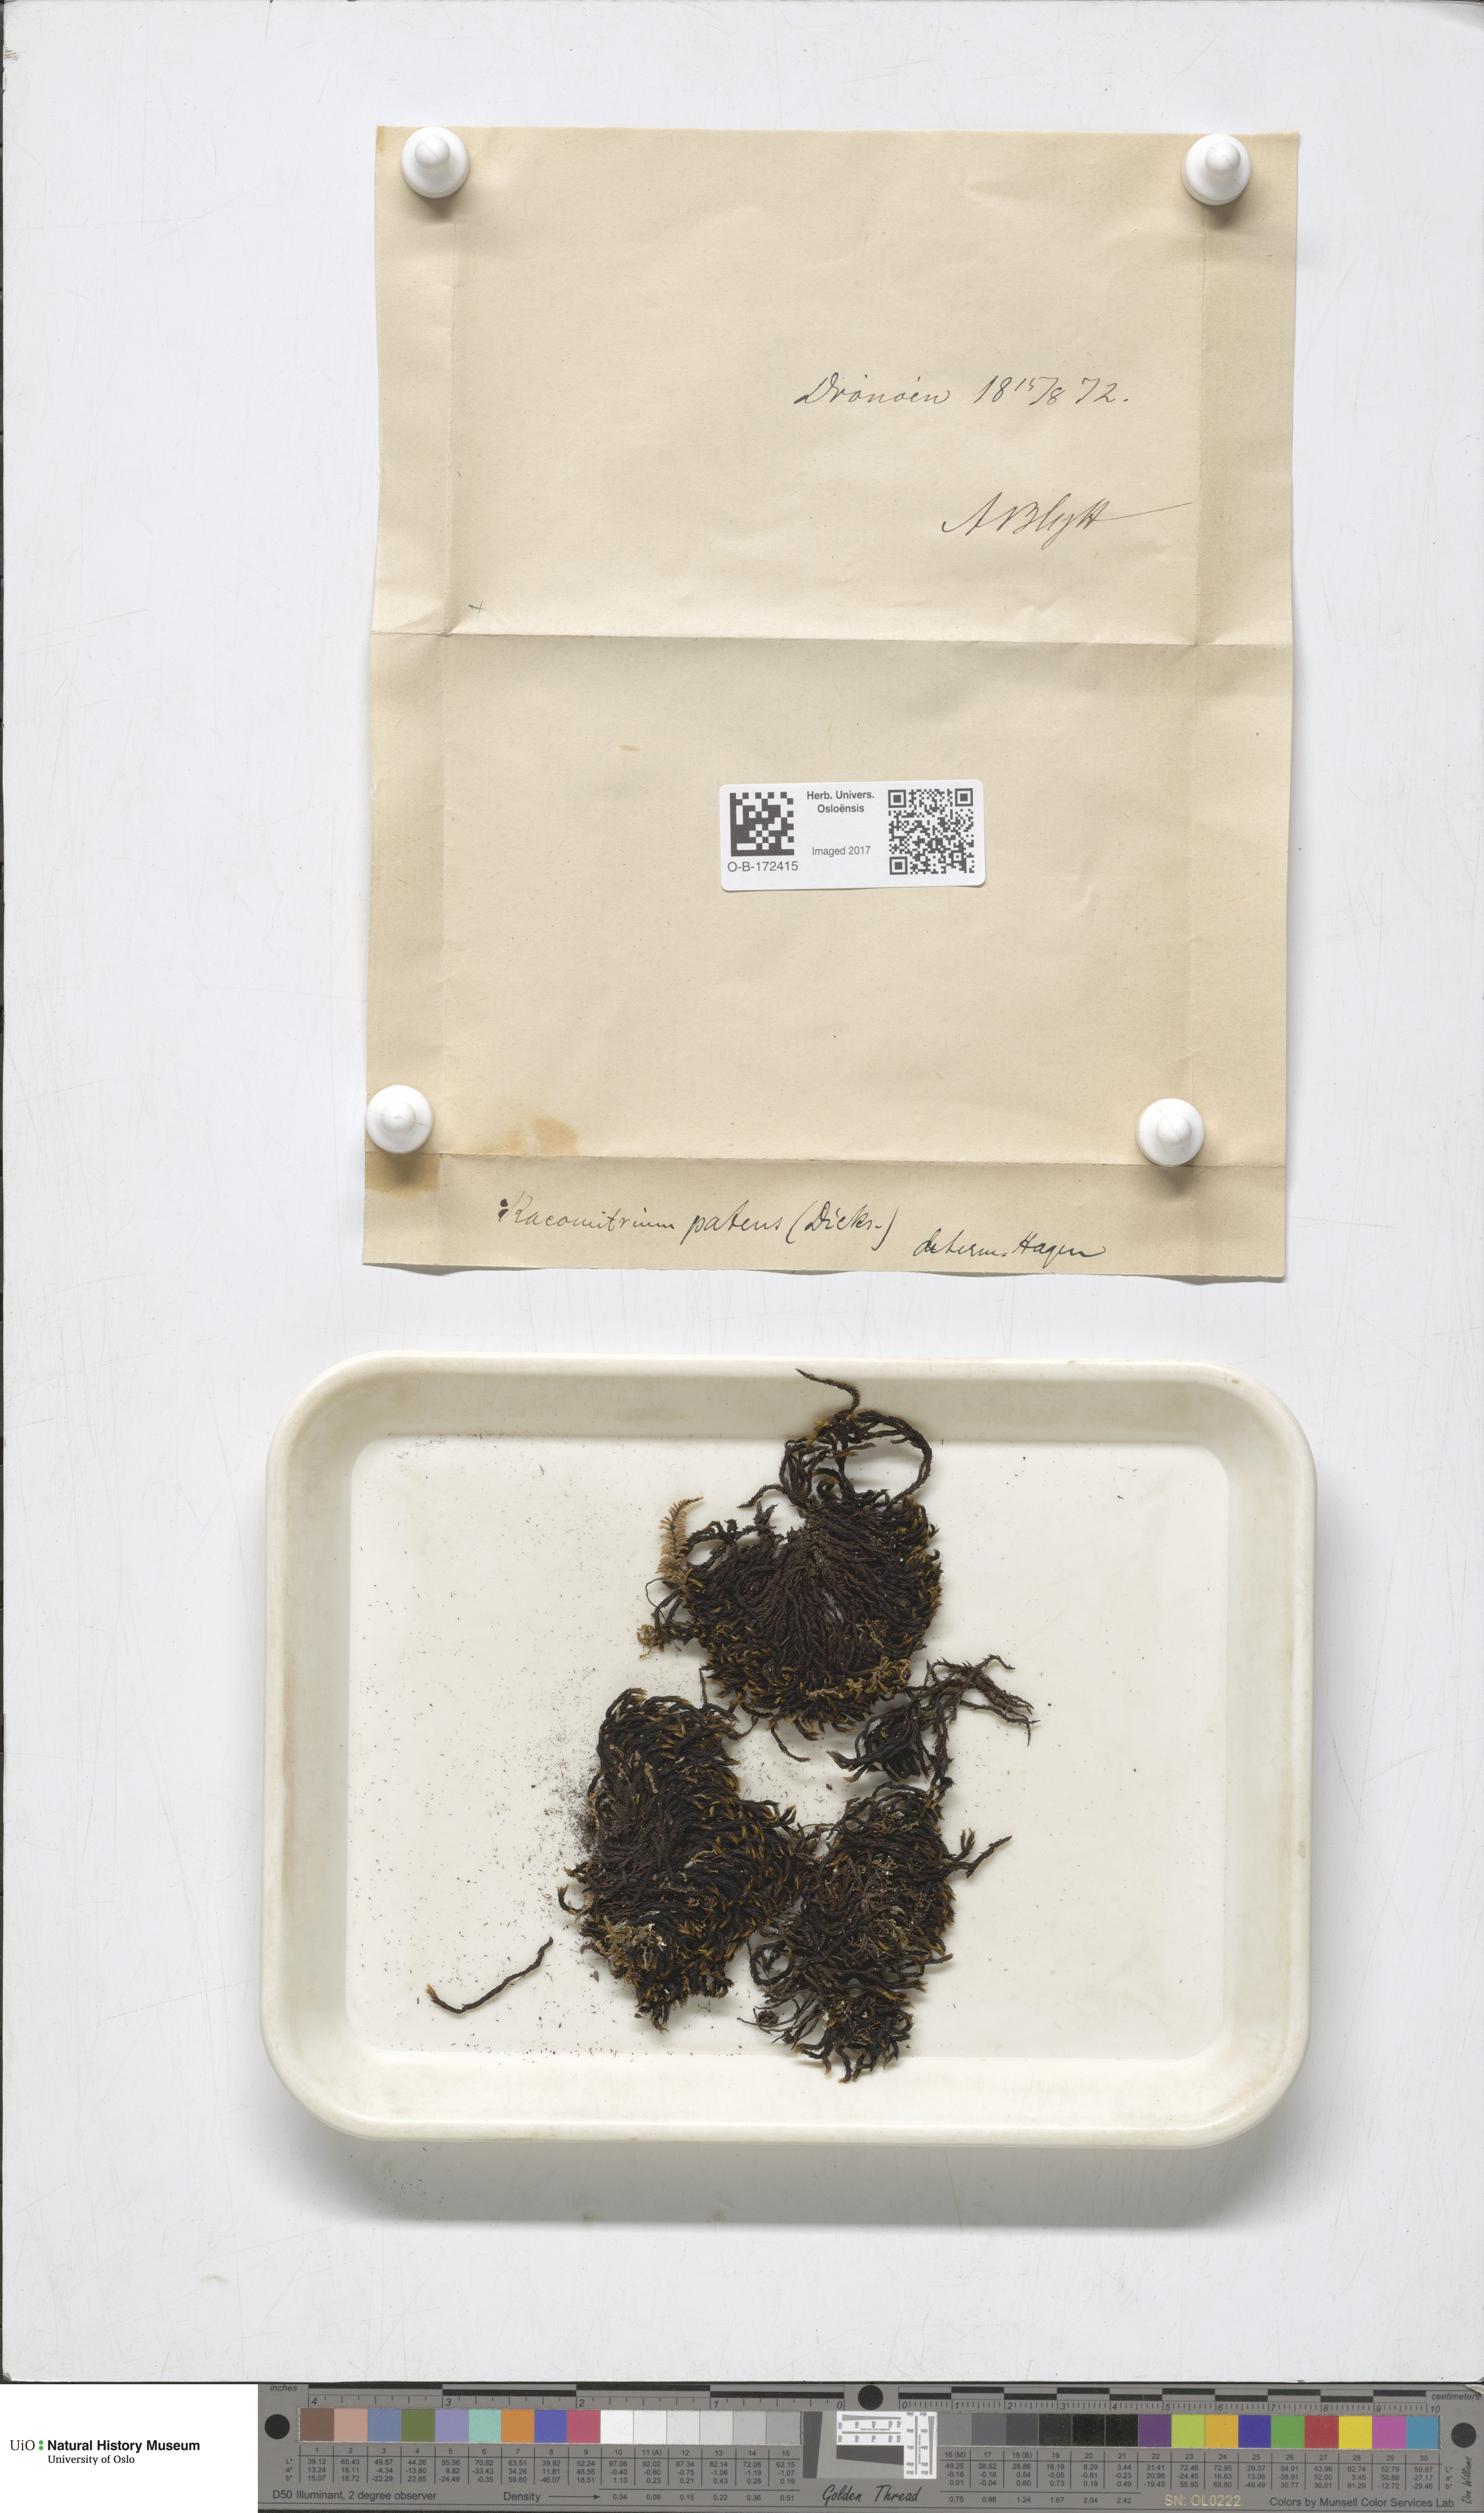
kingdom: Plantae
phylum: Bryophyta
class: Bryopsida
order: Grimmiales
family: Grimmiaceae
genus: Grimmia
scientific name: Grimmia ramondii
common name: Spreading-leaved grimmia
